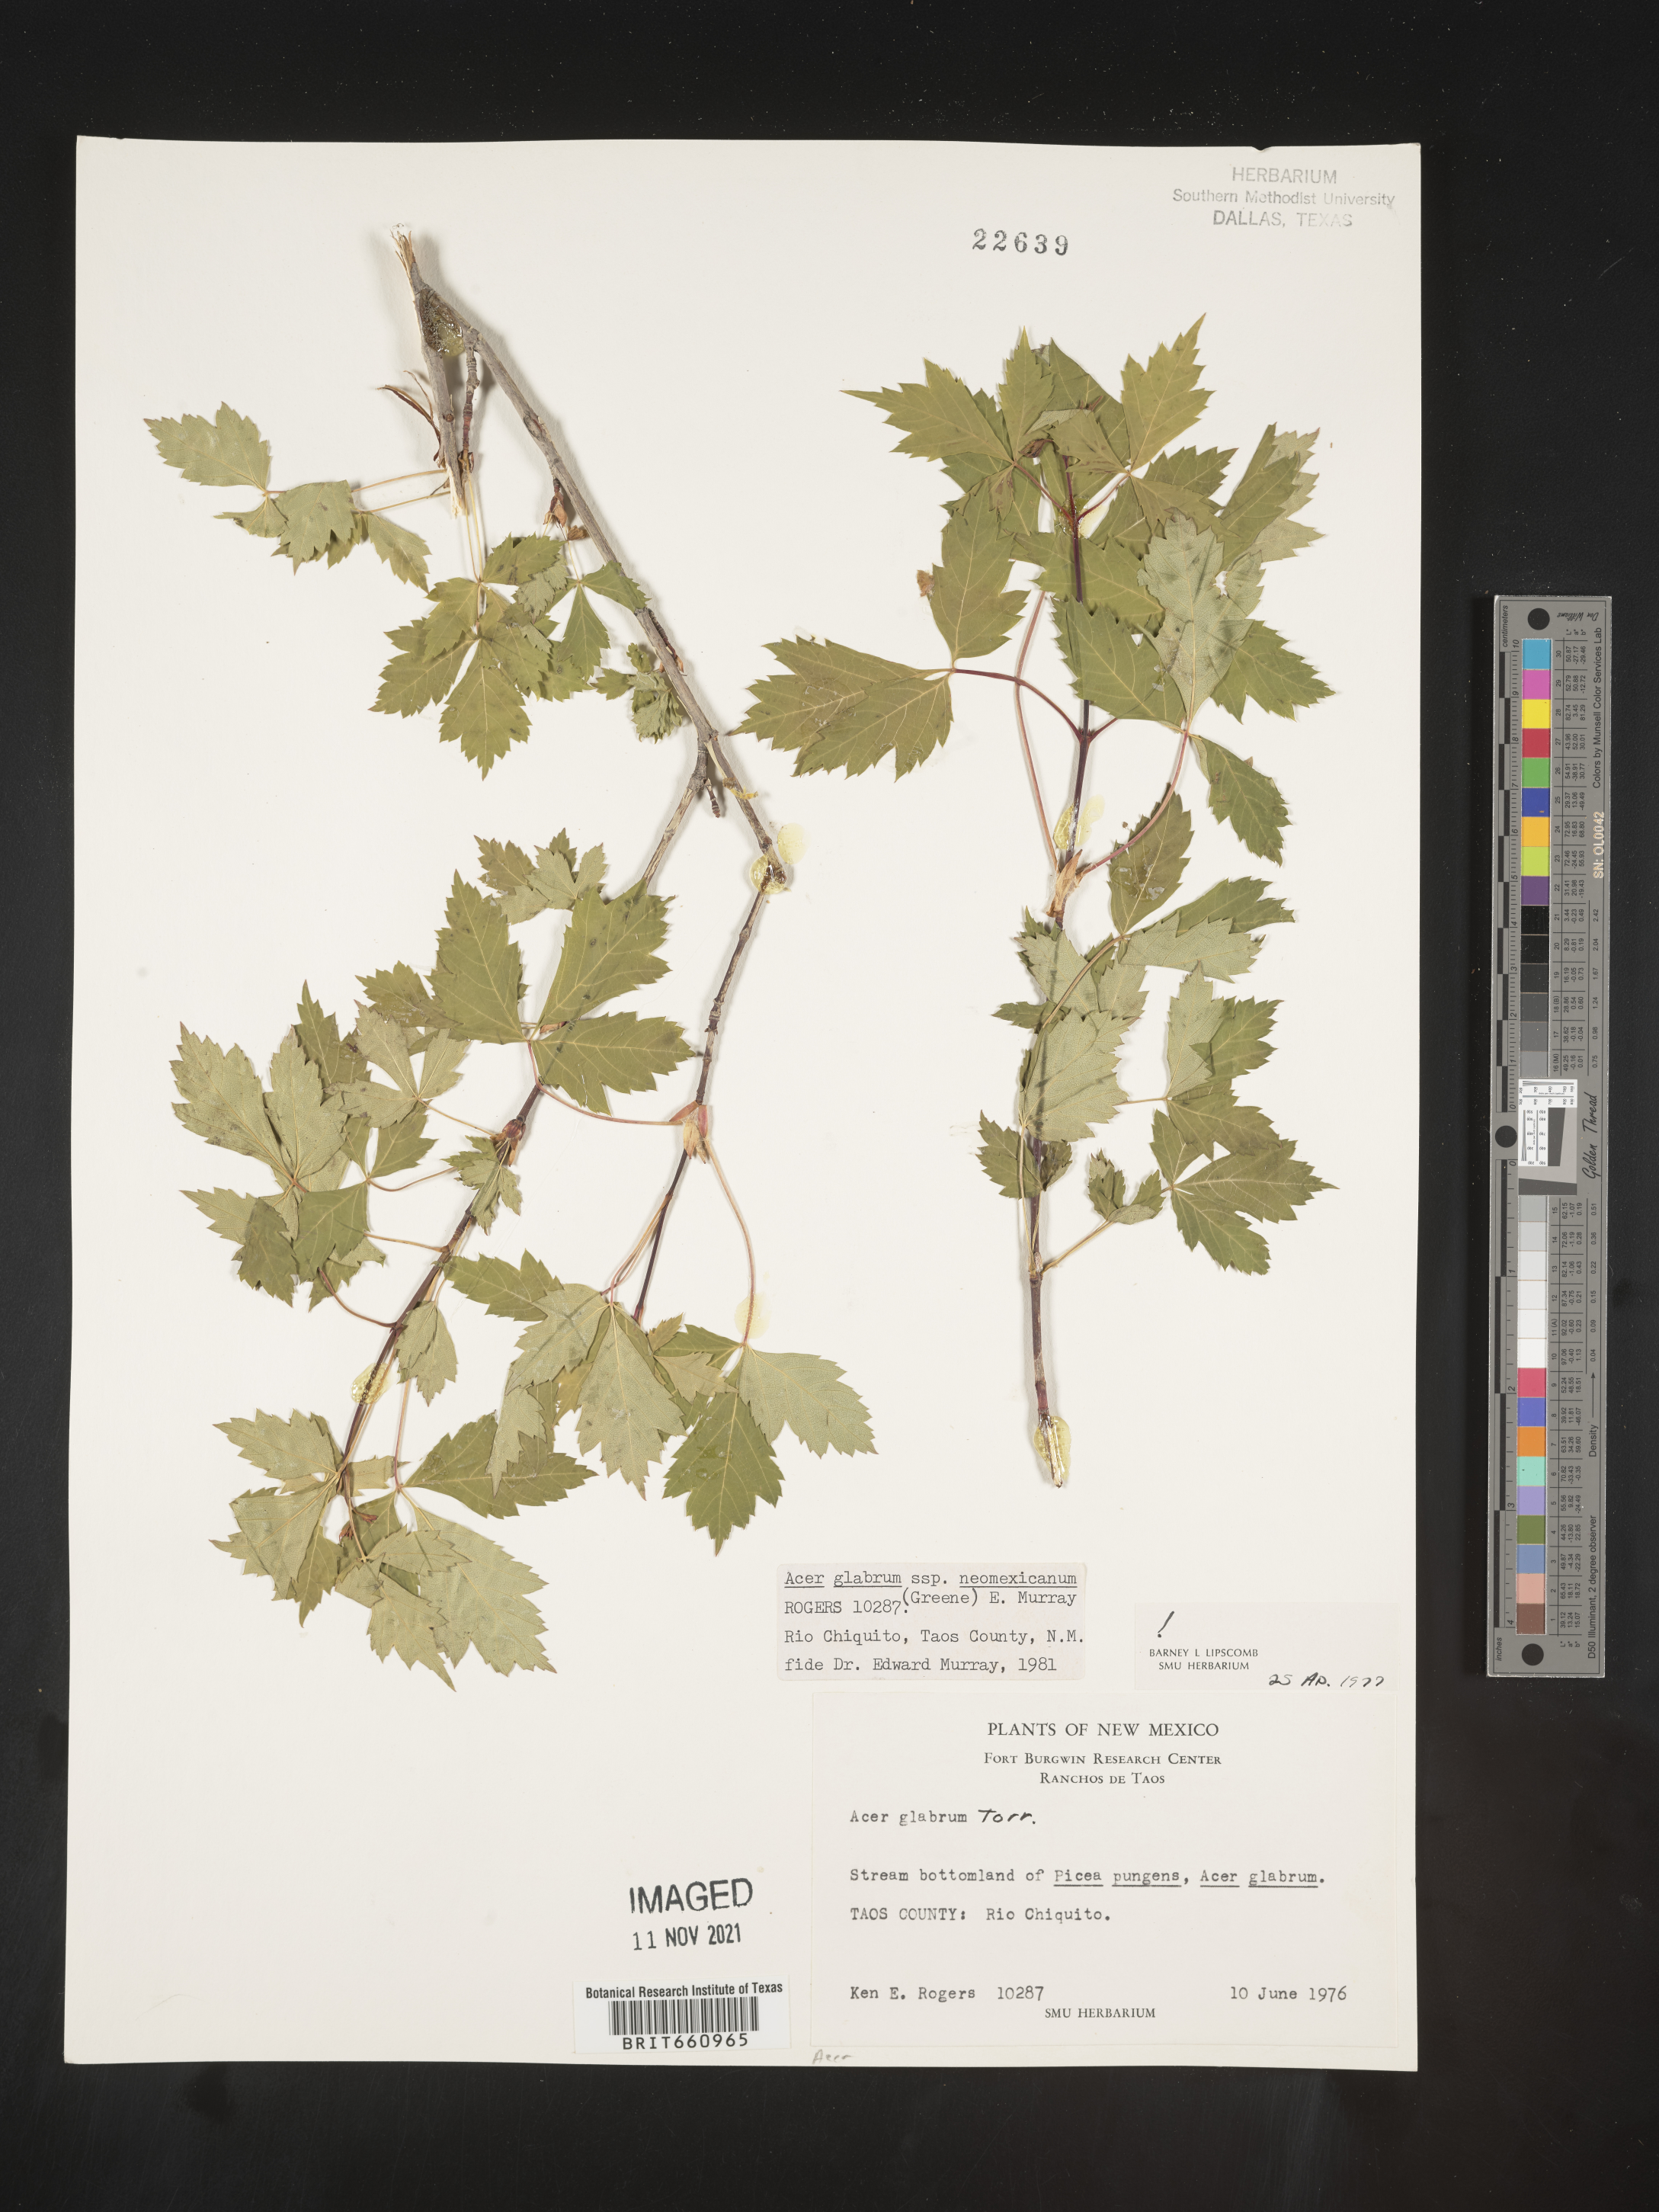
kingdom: Plantae
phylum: Tracheophyta
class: Magnoliopsida
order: Sapindales
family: Sapindaceae
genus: Acer
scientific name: Acer glabrum
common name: Rocky mountain maple
